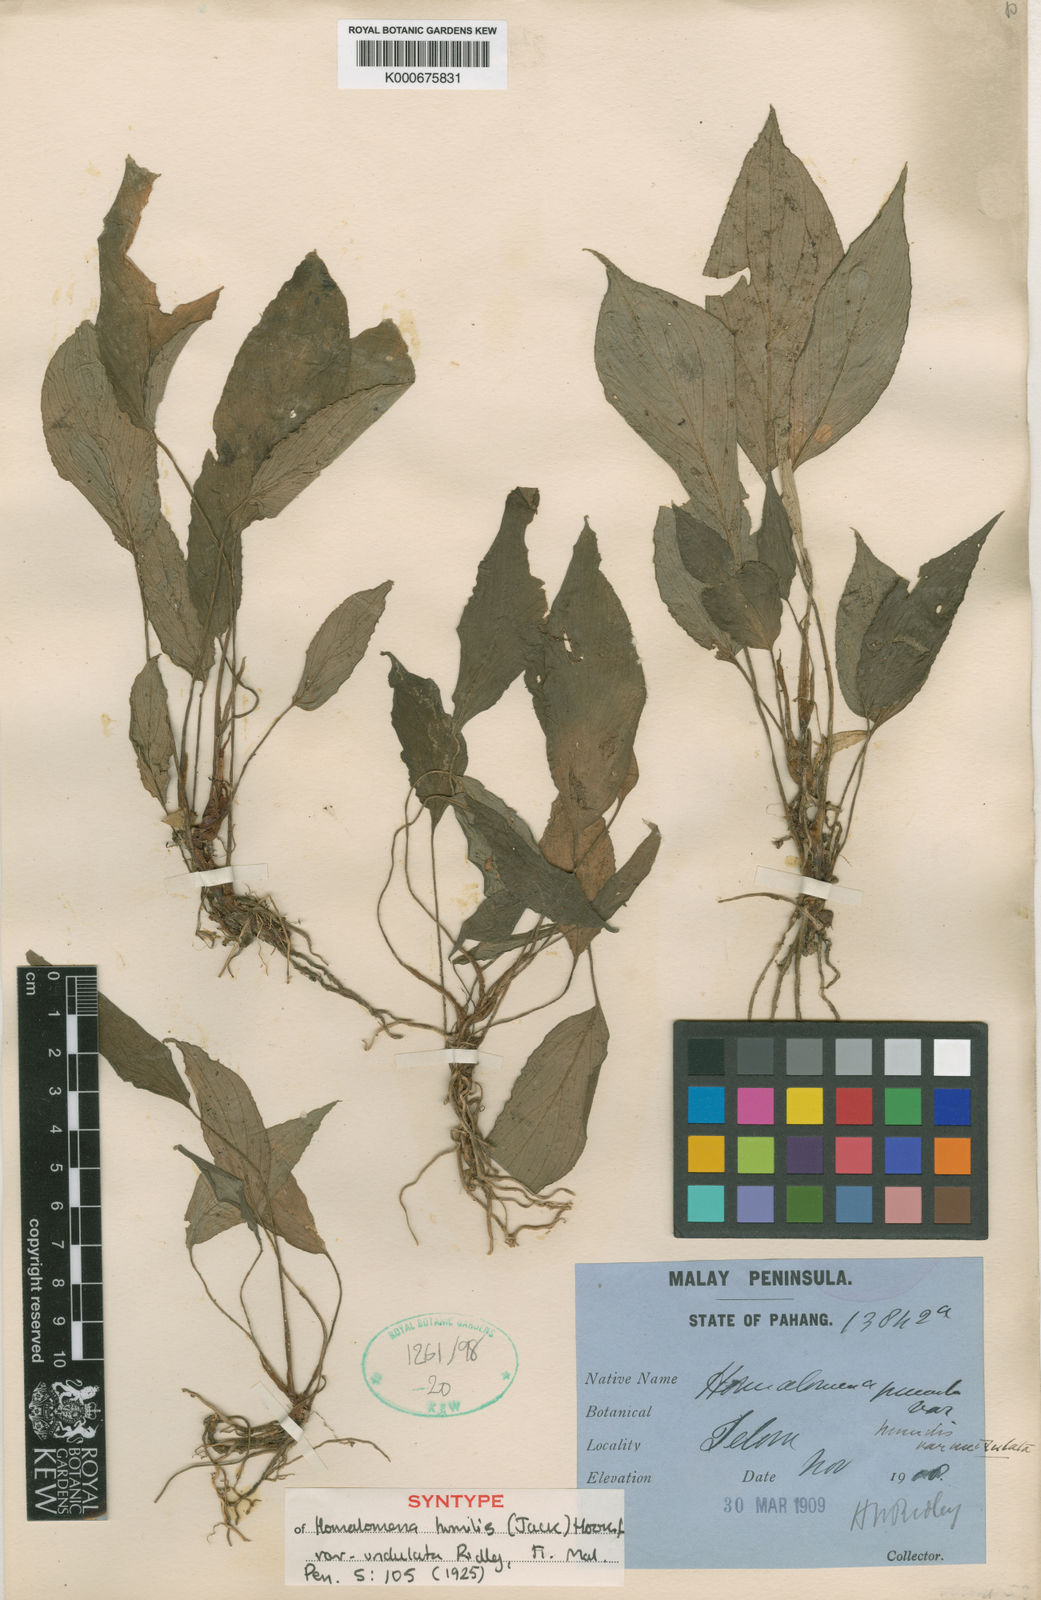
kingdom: Plantae
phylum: Tracheophyta
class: Liliopsida
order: Alismatales
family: Araceae
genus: Homalomena
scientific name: Homalomena humilis
